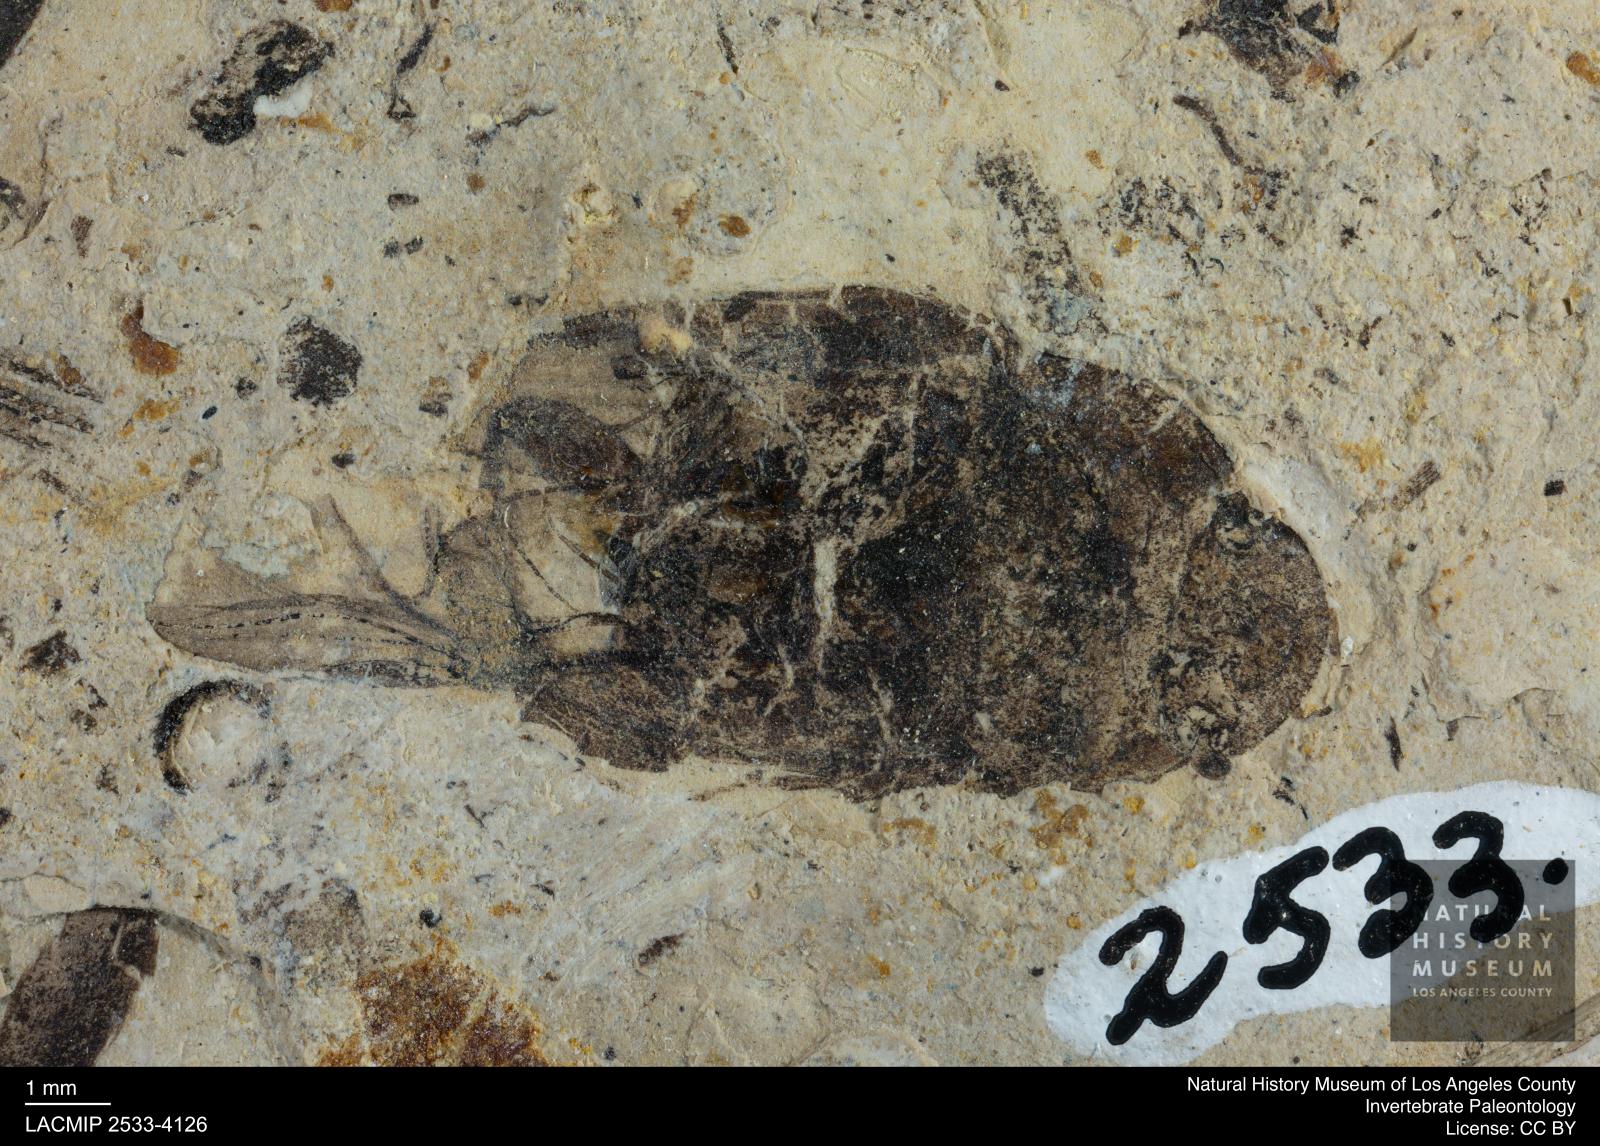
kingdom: Animalia
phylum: Arthropoda
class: Insecta
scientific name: Insecta
